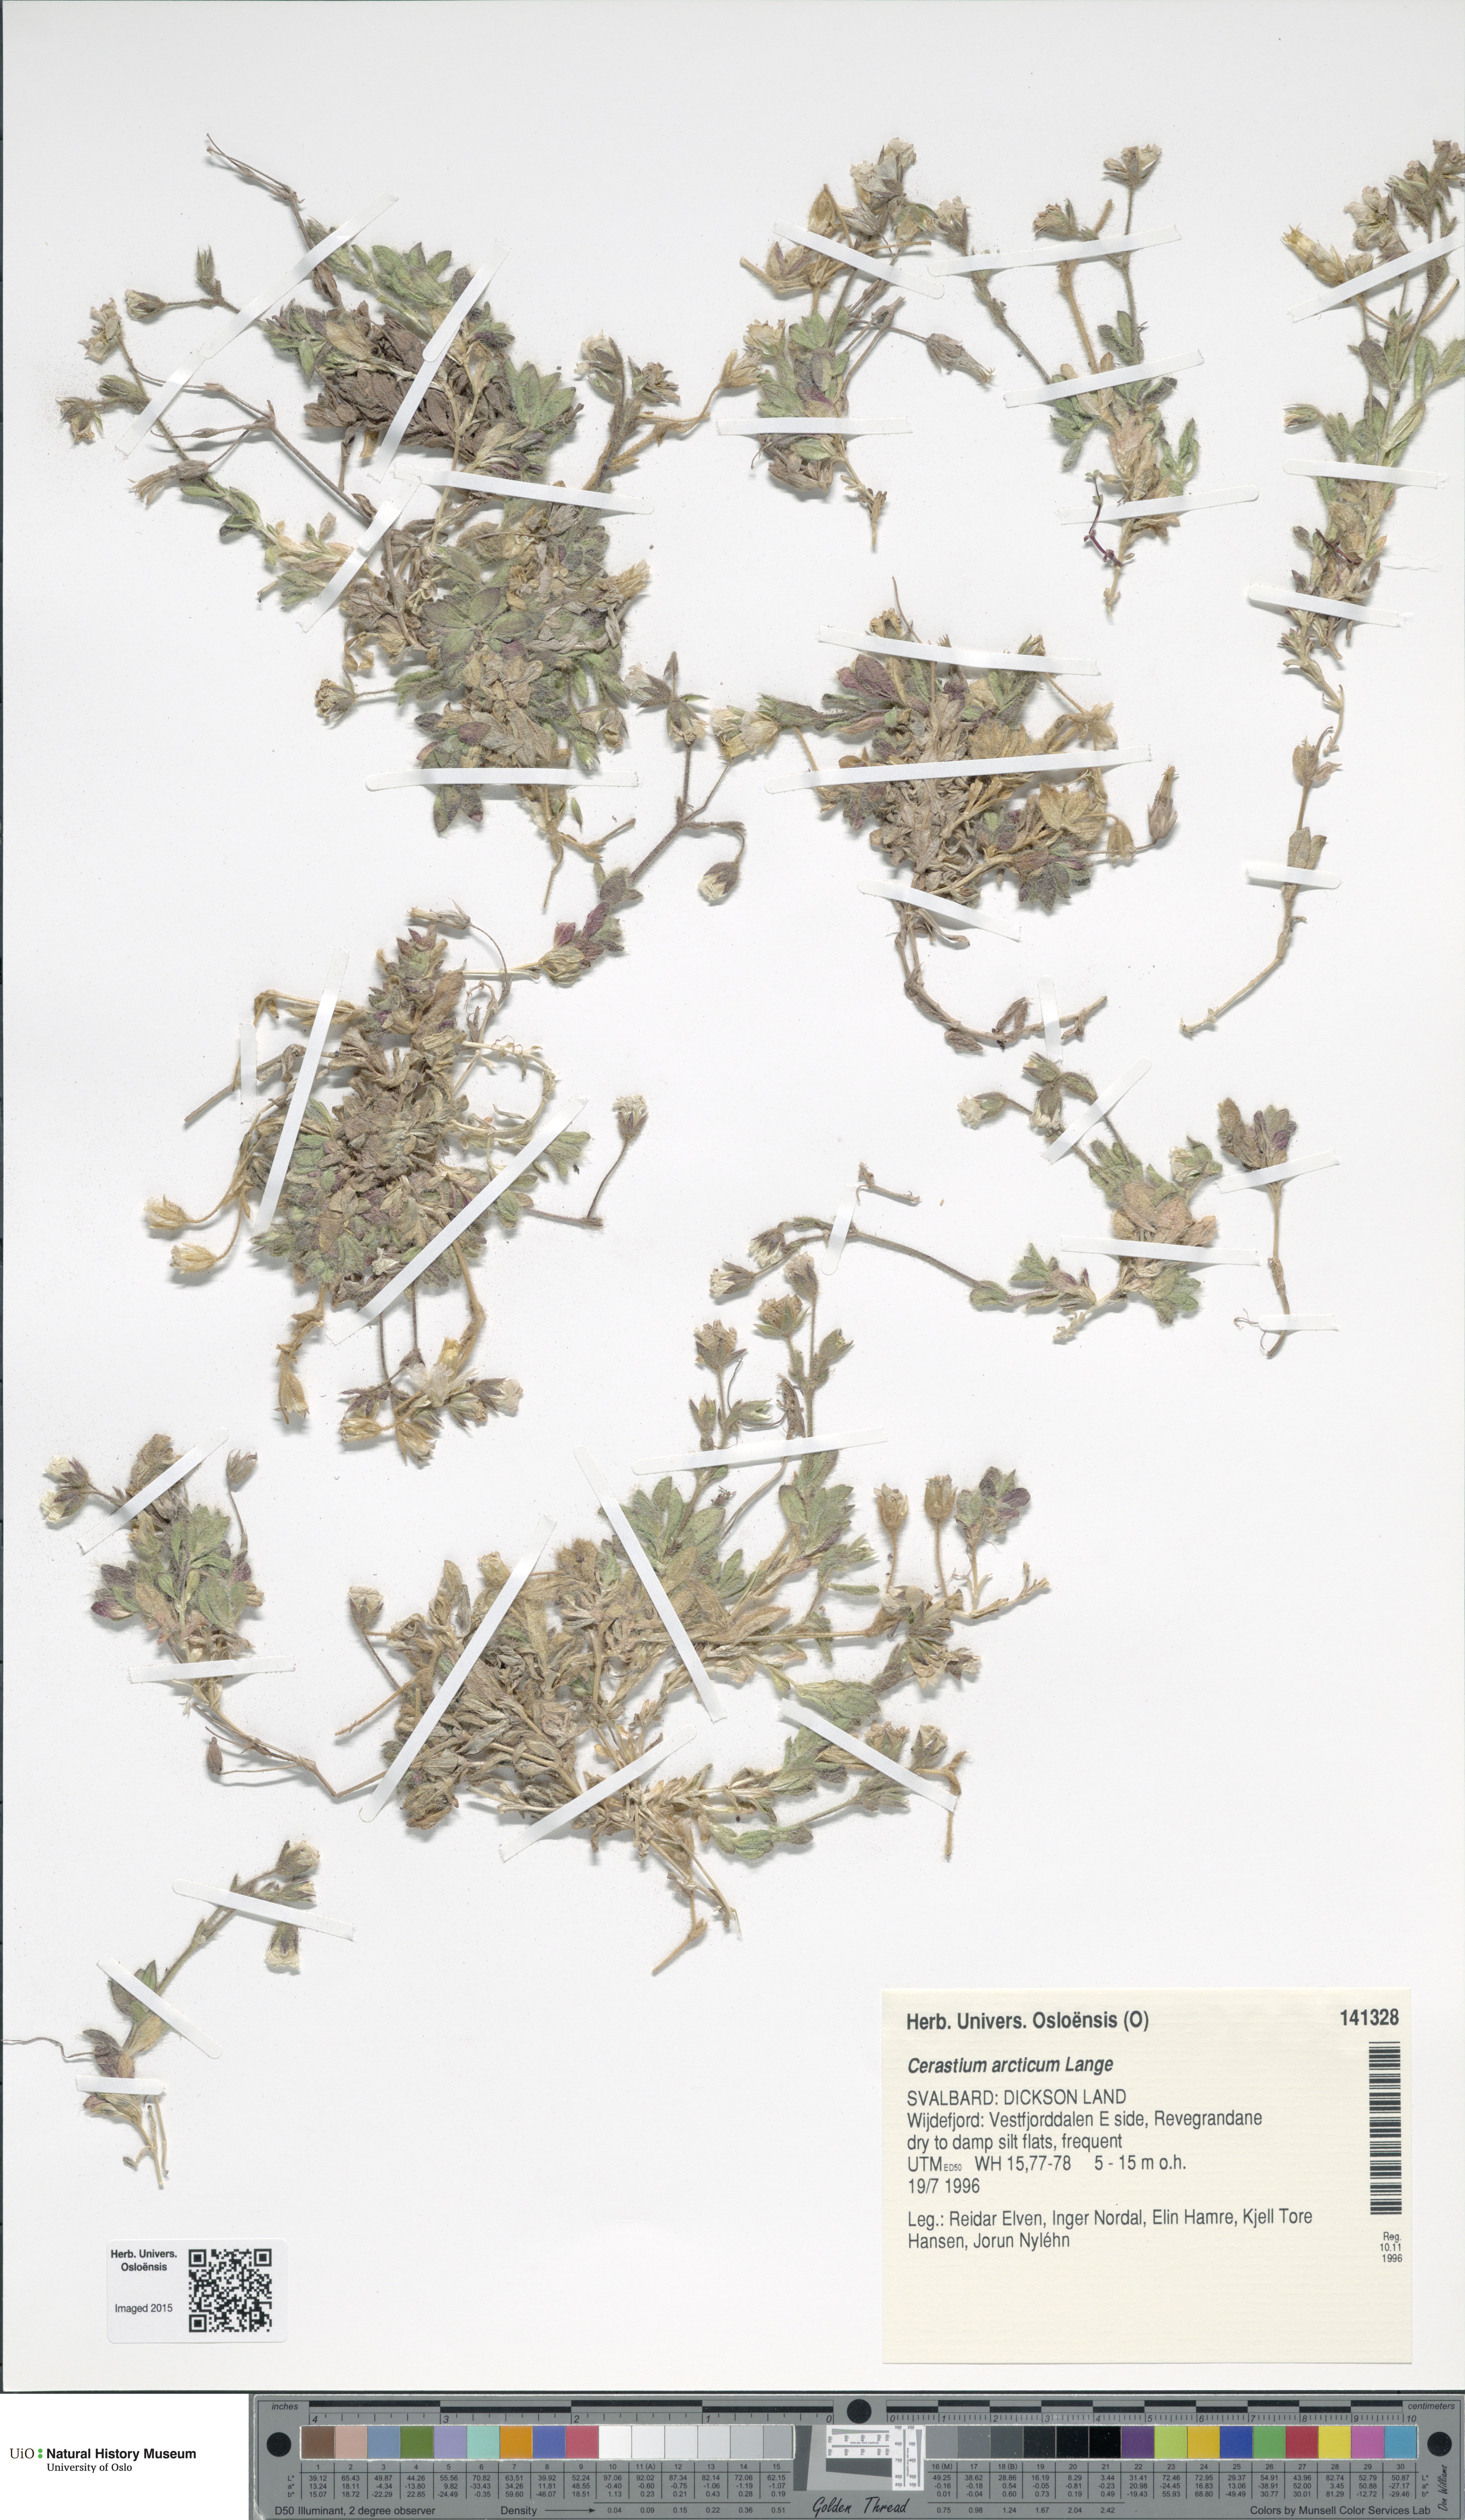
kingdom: Plantae
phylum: Tracheophyta
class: Magnoliopsida
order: Caryophyllales
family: Caryophyllaceae
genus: Cerastium
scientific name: Cerastium arcticum
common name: Arctic mouse-ear
